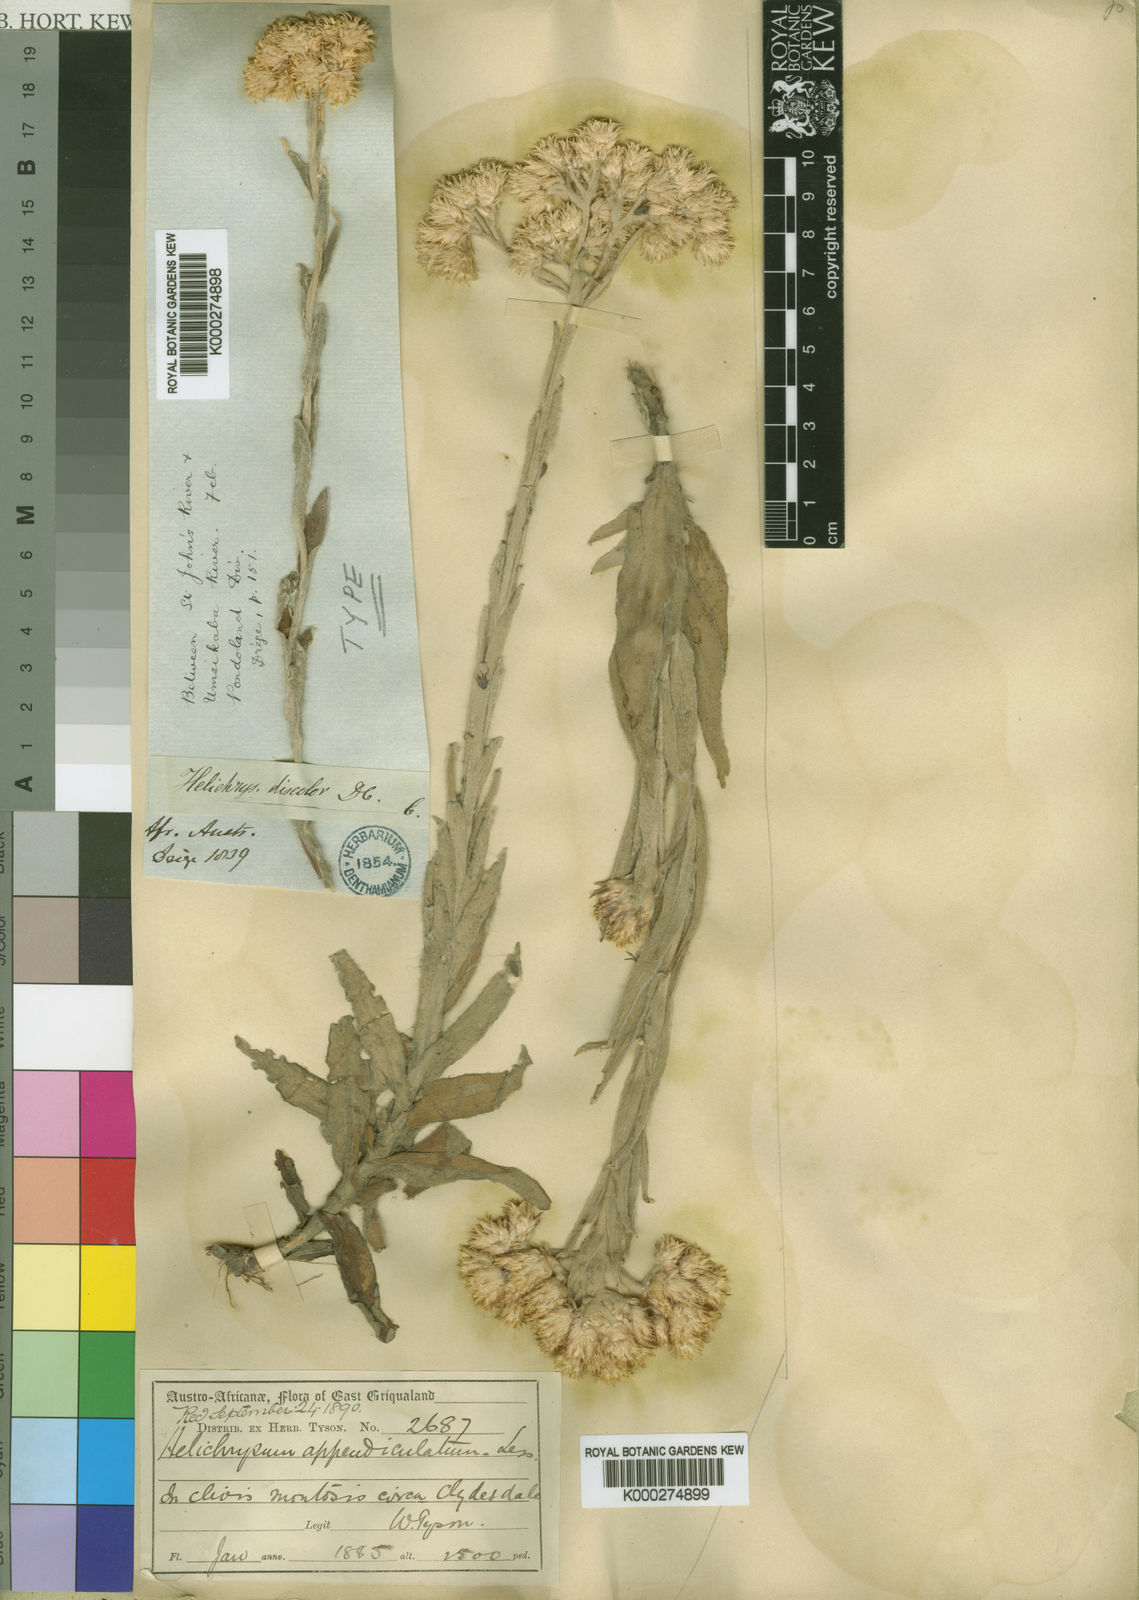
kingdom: Plantae
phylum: Tracheophyta
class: Magnoliopsida
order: Asterales
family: Asteraceae
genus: Helichrysum
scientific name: Helichrysum appendiculatum
